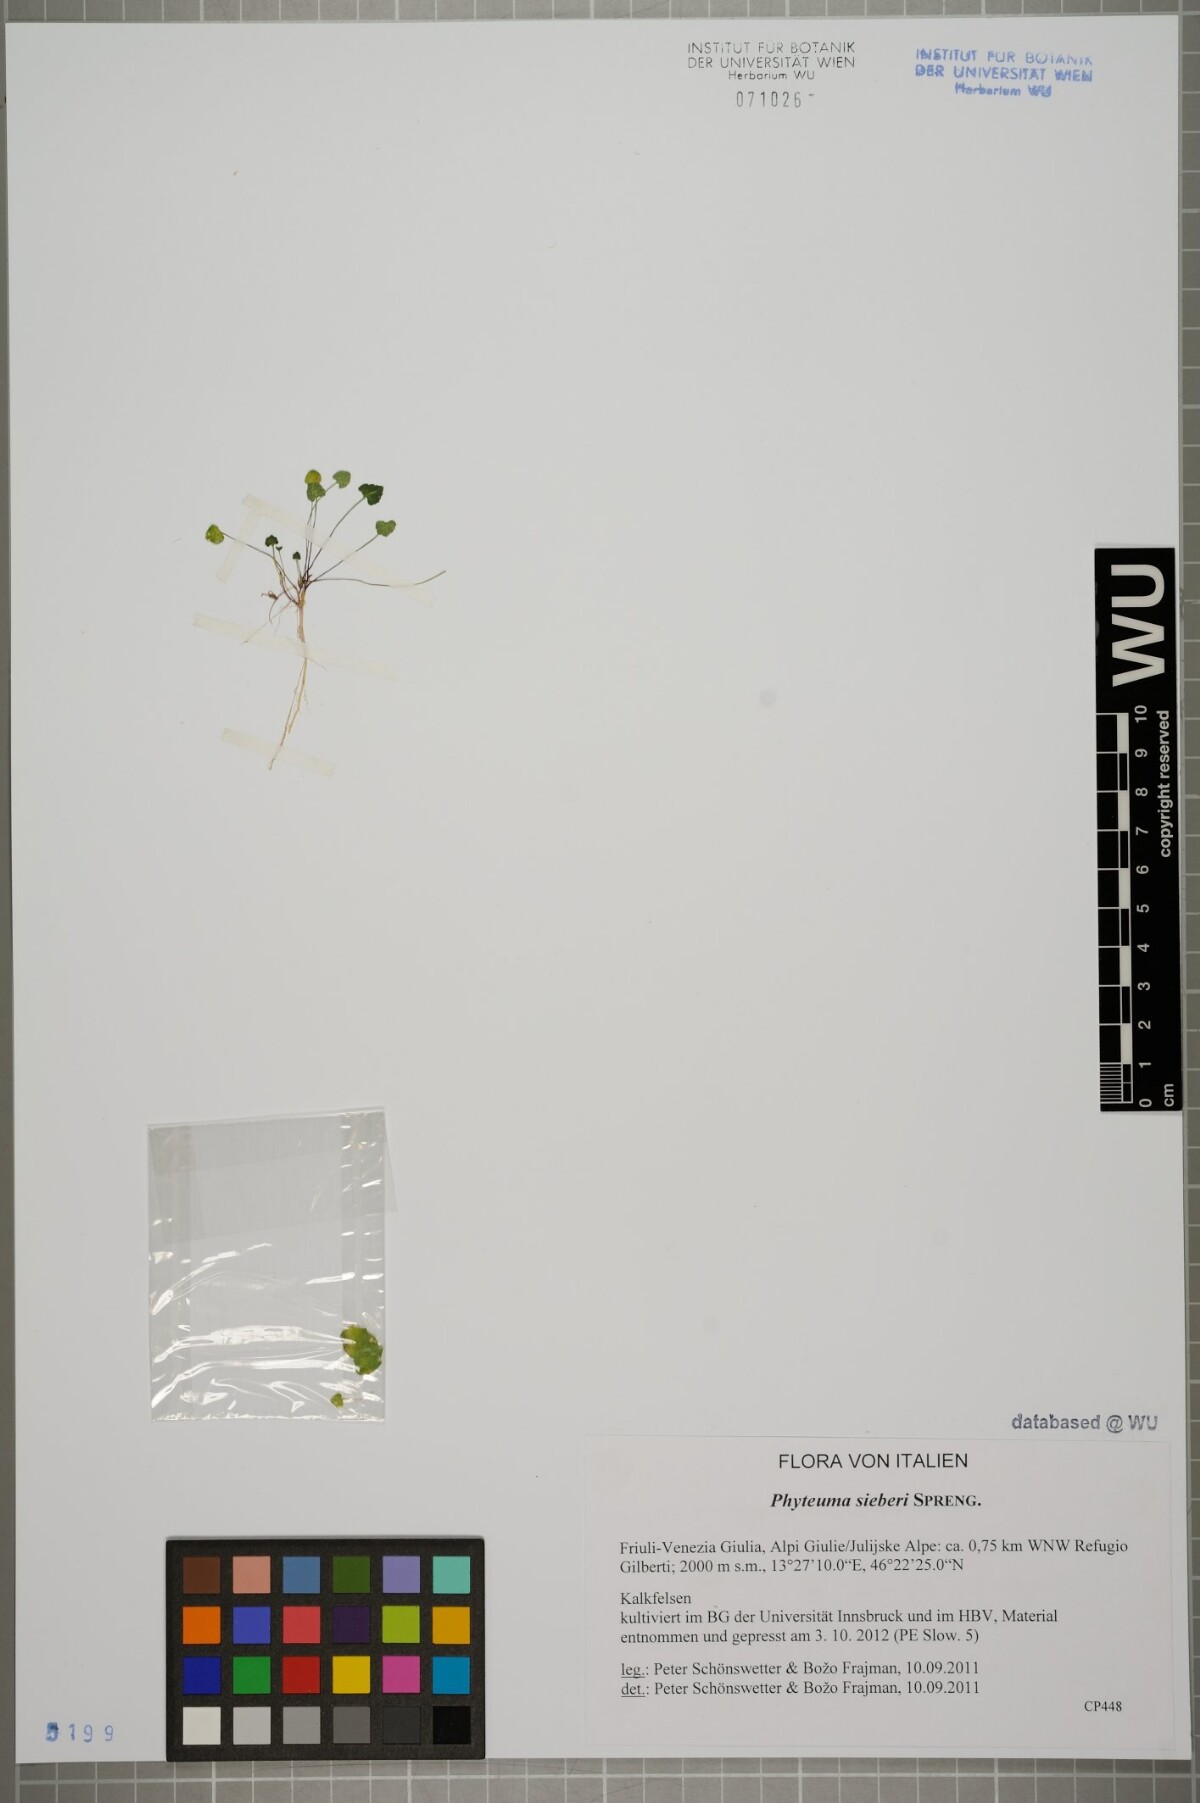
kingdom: Plantae
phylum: Tracheophyta
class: Magnoliopsida
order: Asterales
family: Campanulaceae
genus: Phyteuma
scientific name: Phyteuma sieberi
